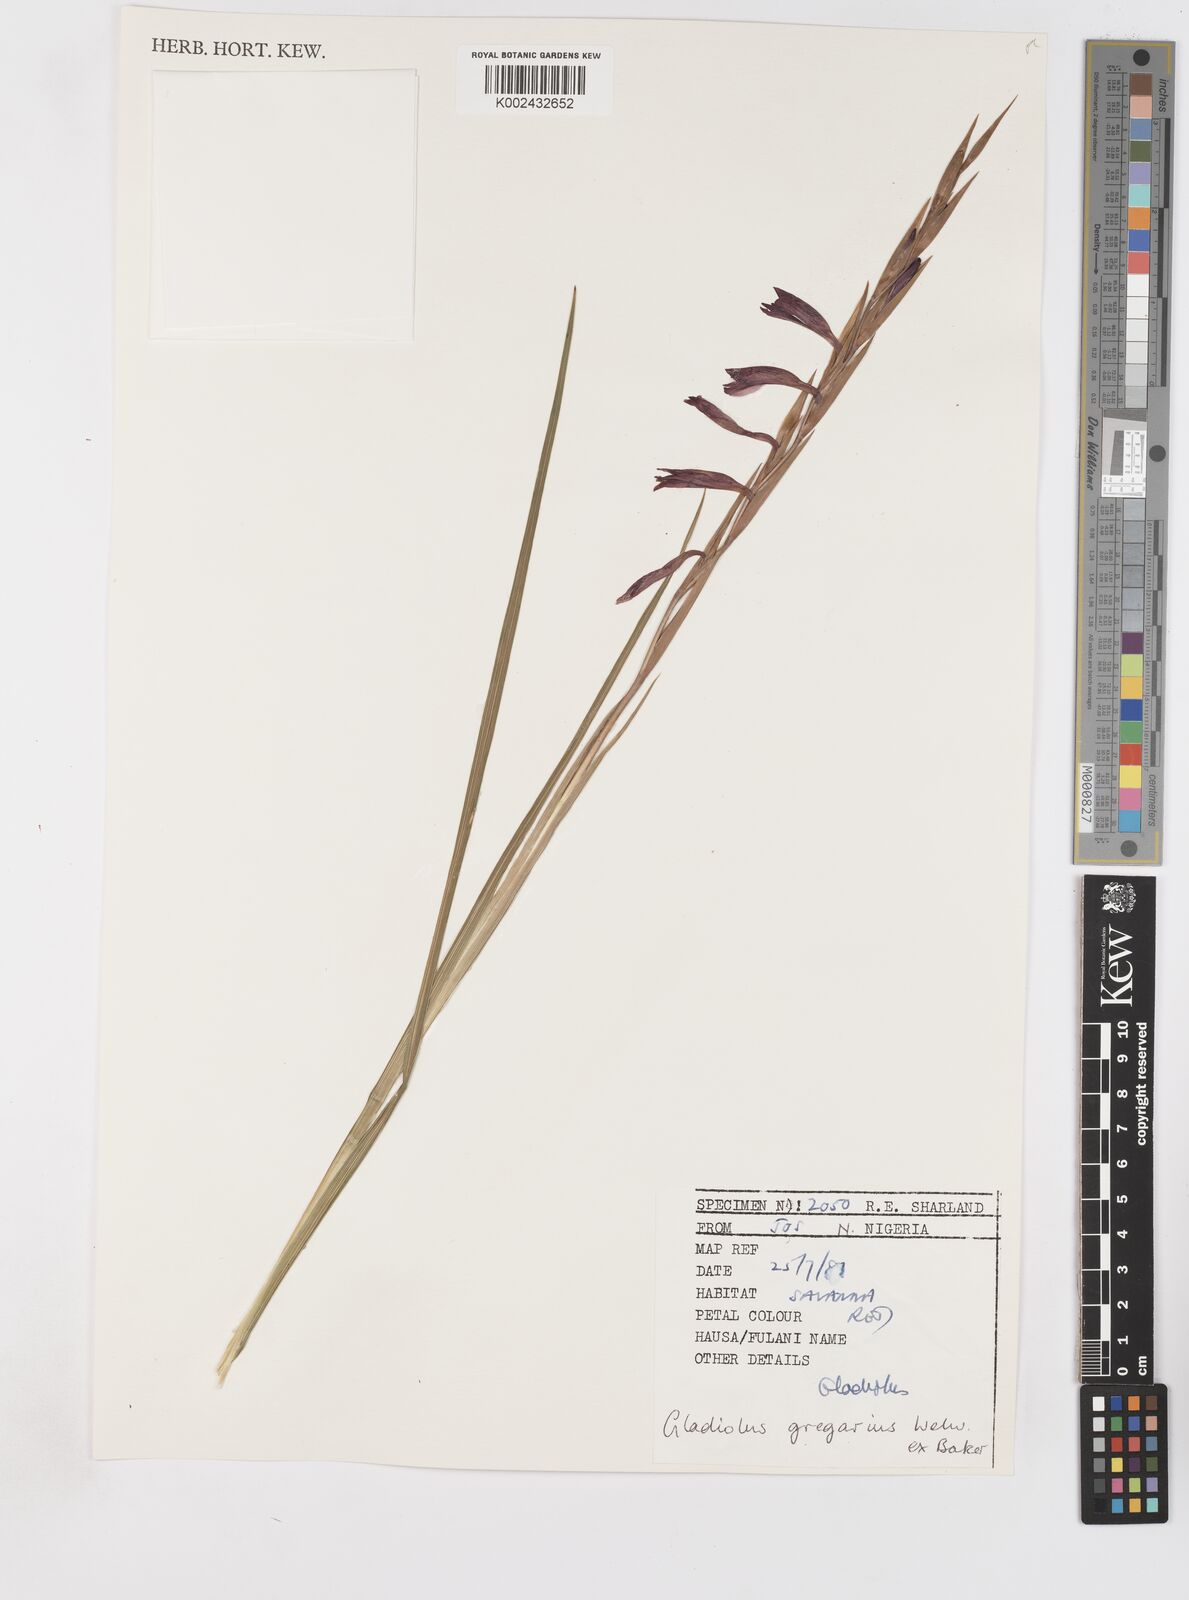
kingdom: Plantae
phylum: Tracheophyta
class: Liliopsida
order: Asparagales
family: Iridaceae
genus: Gladiolus
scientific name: Gladiolus gregarius
